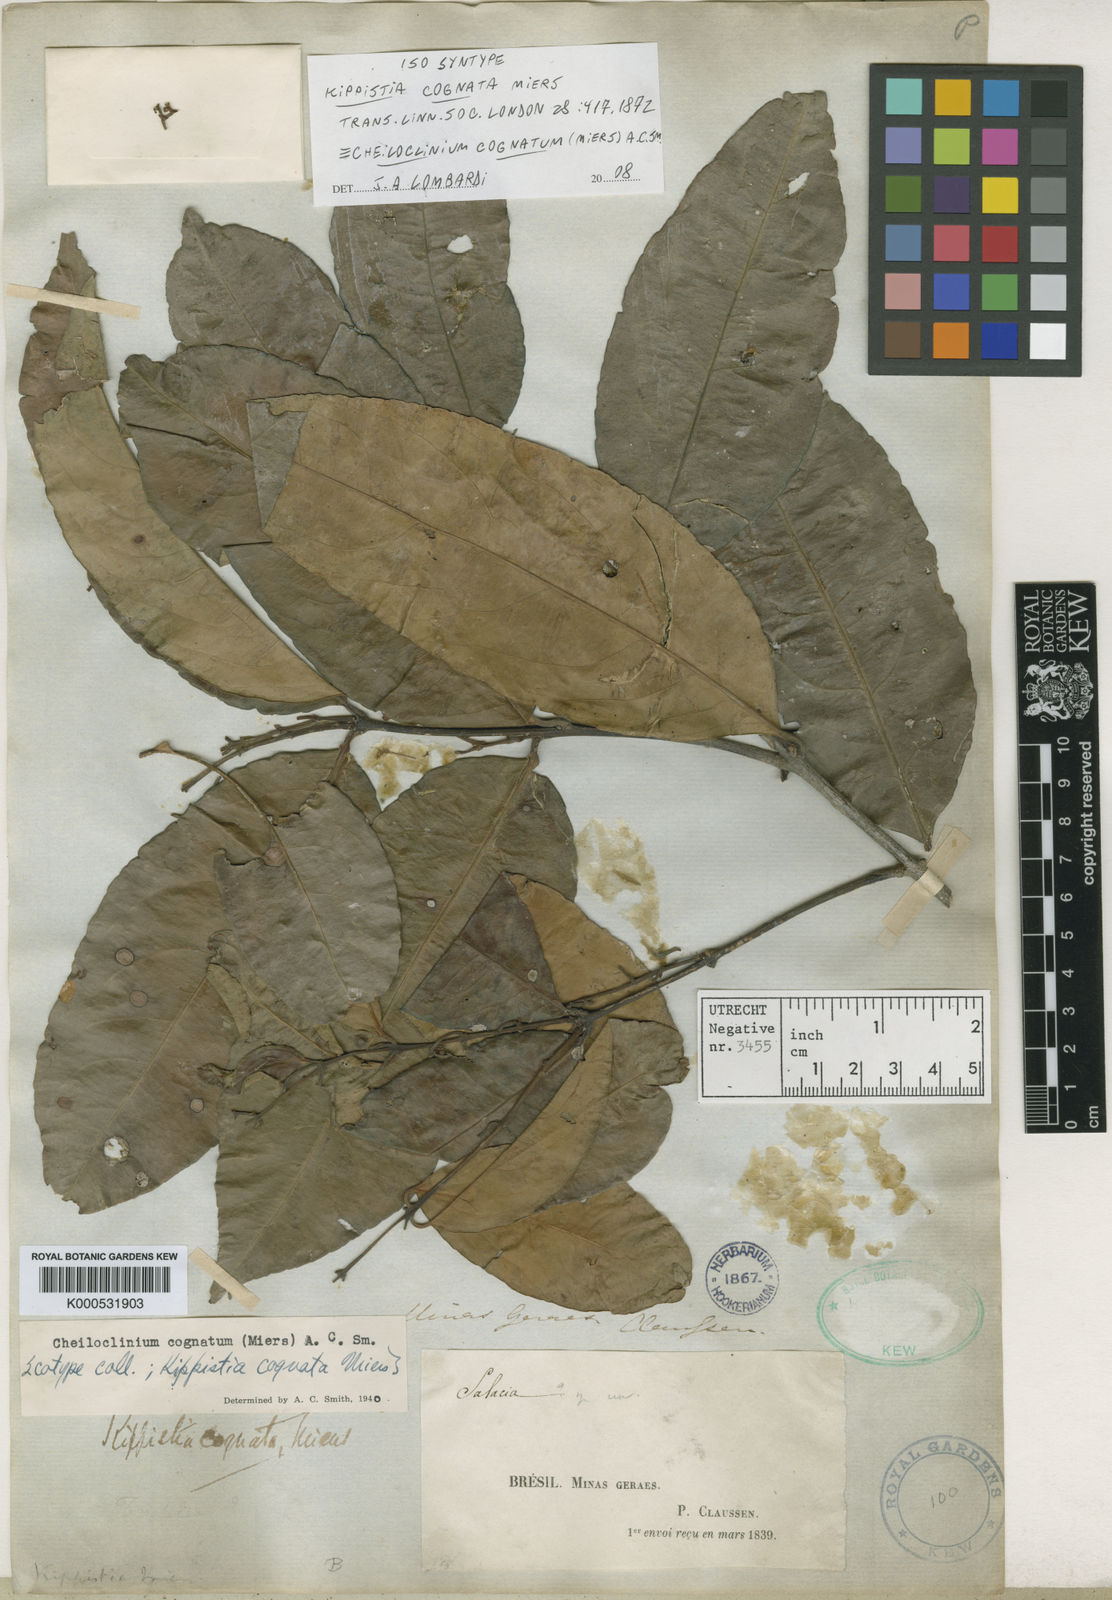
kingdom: Plantae
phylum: Tracheophyta
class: Magnoliopsida
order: Celastrales
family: Celastraceae
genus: Cheiloclinium
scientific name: Cheiloclinium cognatum
